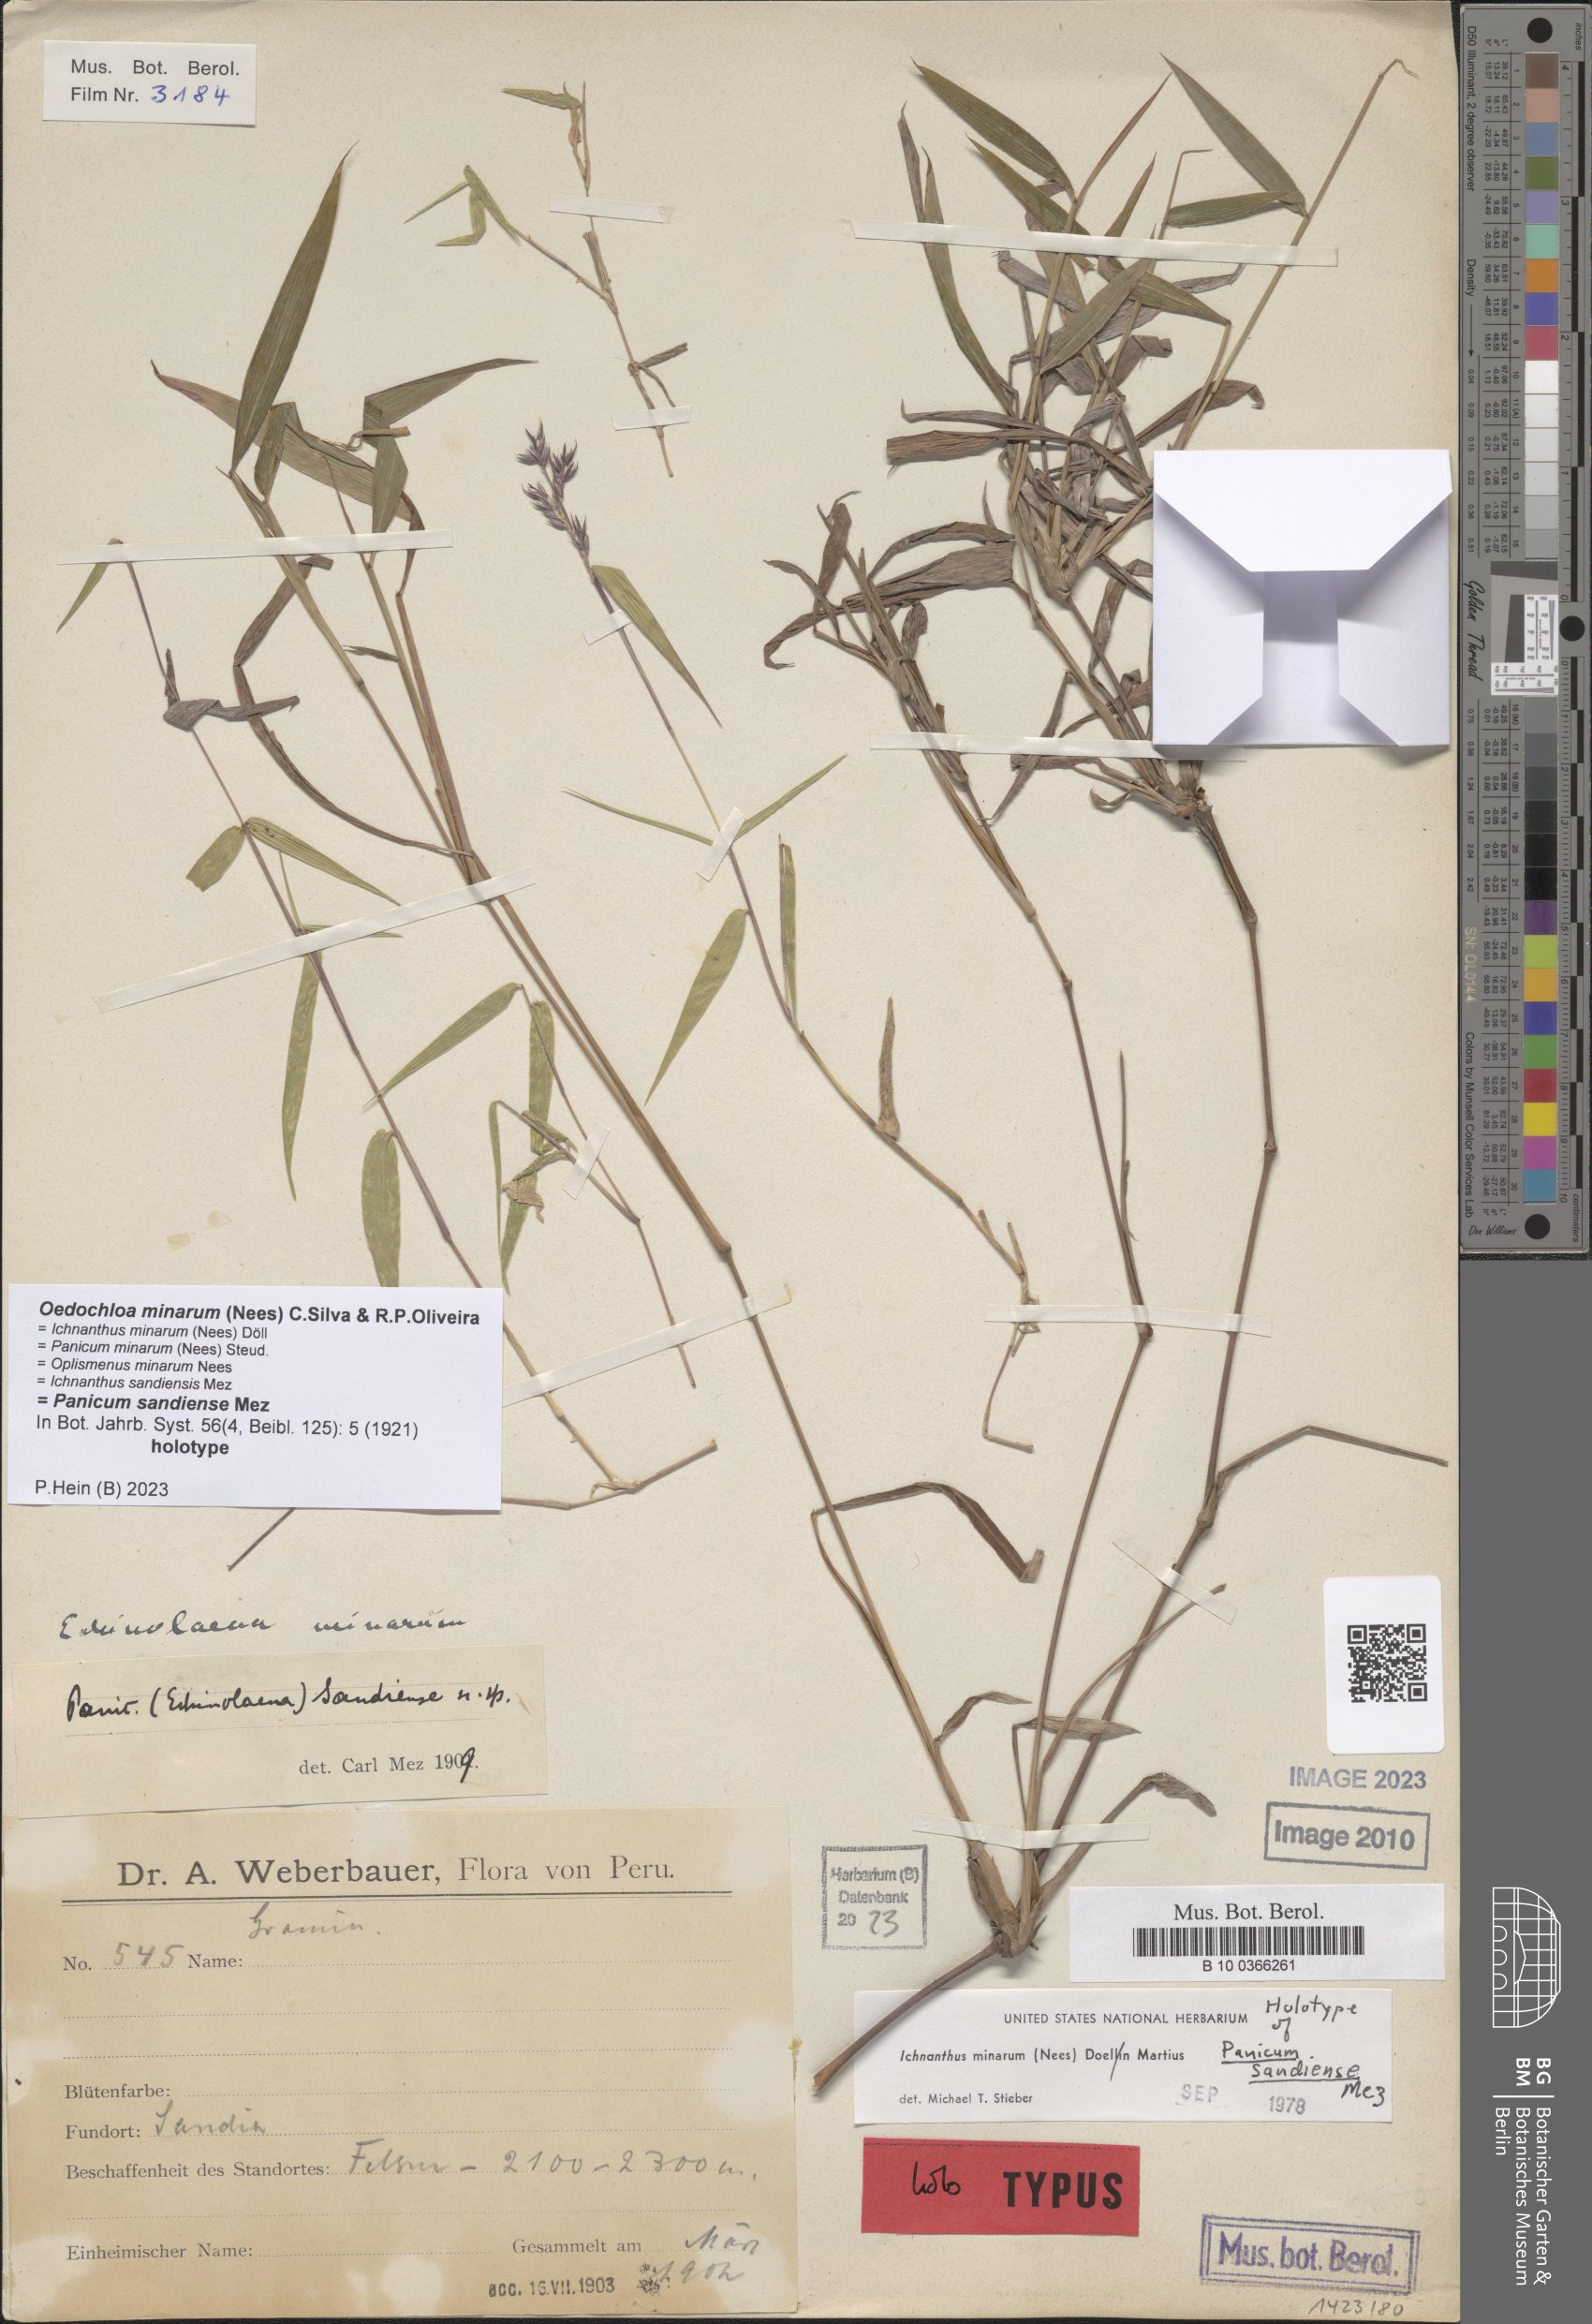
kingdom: Plantae
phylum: Tracheophyta
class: Liliopsida
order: Poales
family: Poaceae
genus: Oedochloa
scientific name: Oedochloa minarum
